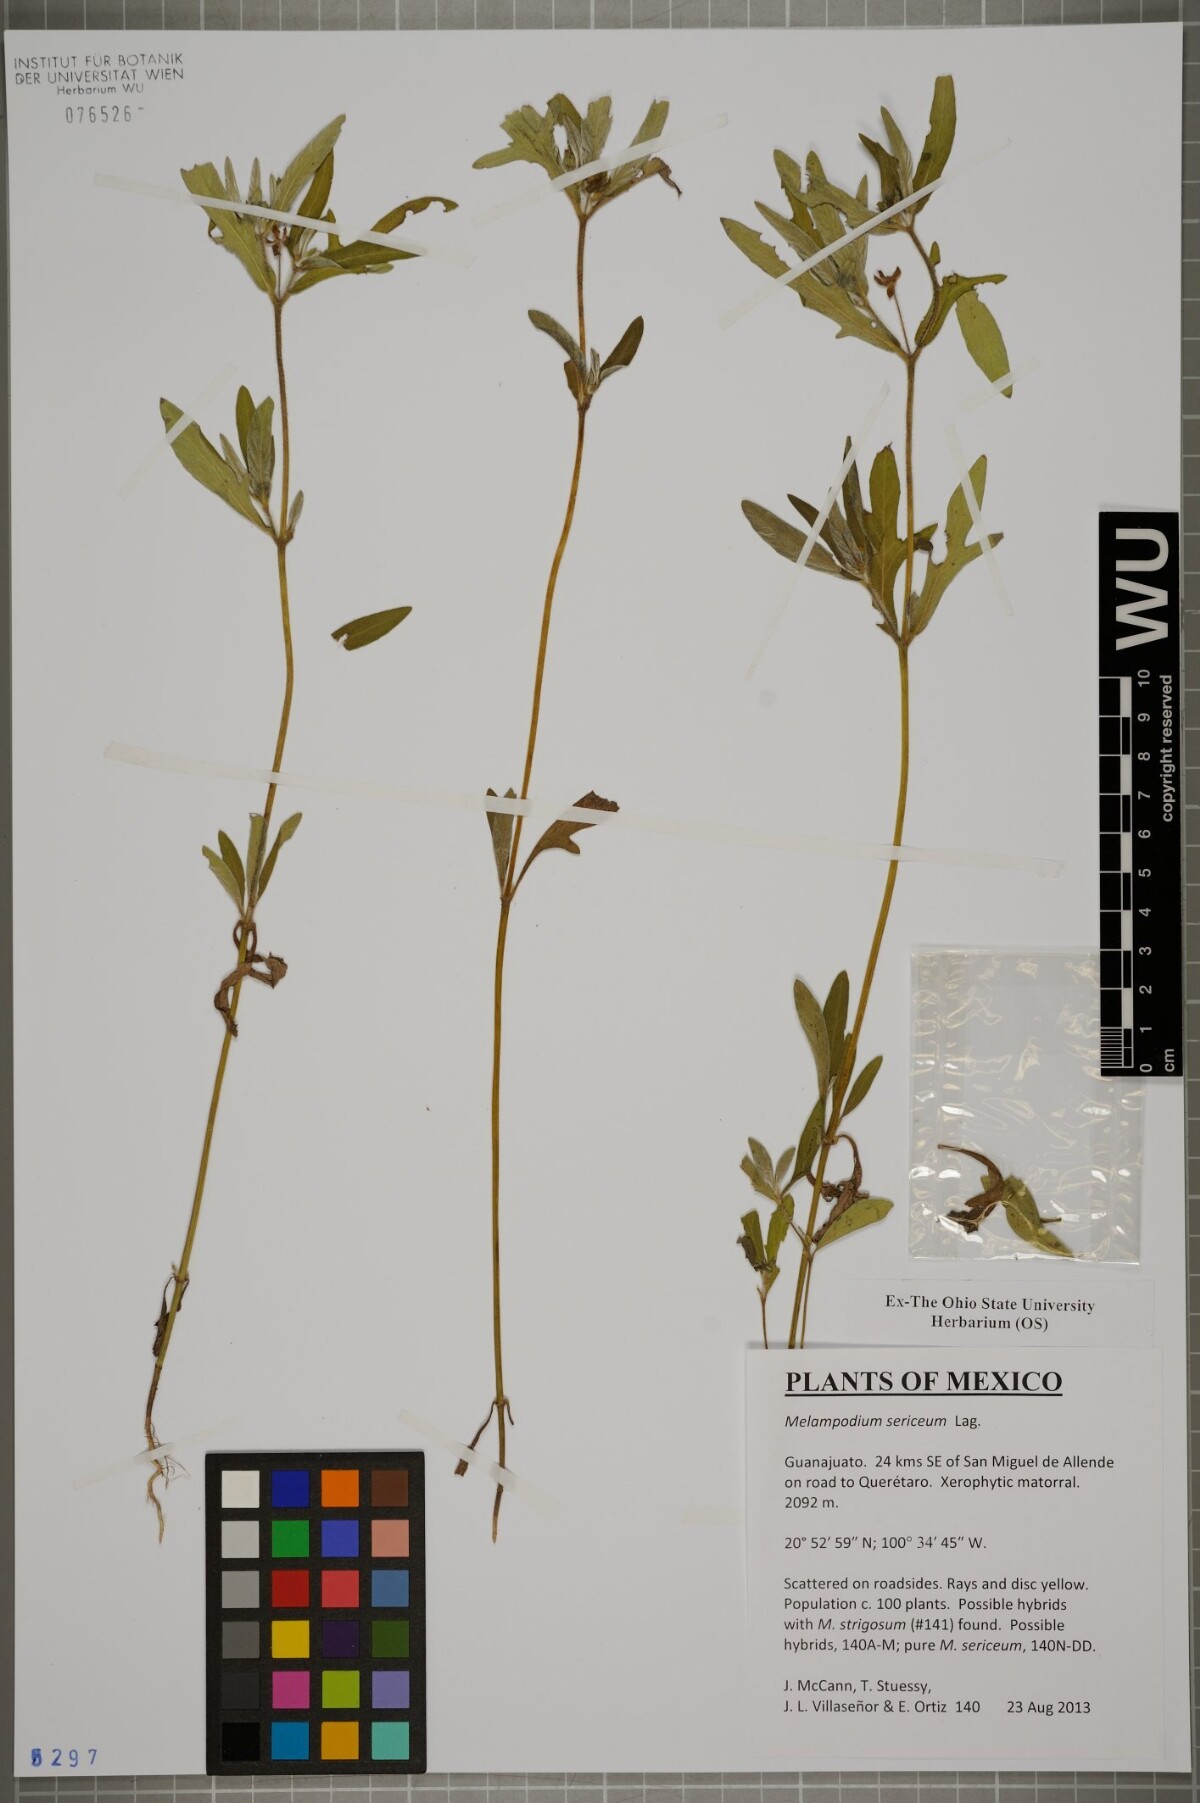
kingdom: Plantae
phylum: Tracheophyta
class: Magnoliopsida
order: Asterales
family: Asteraceae
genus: Melampodium
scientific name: Melampodium sericeum
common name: Rough blackfoot
